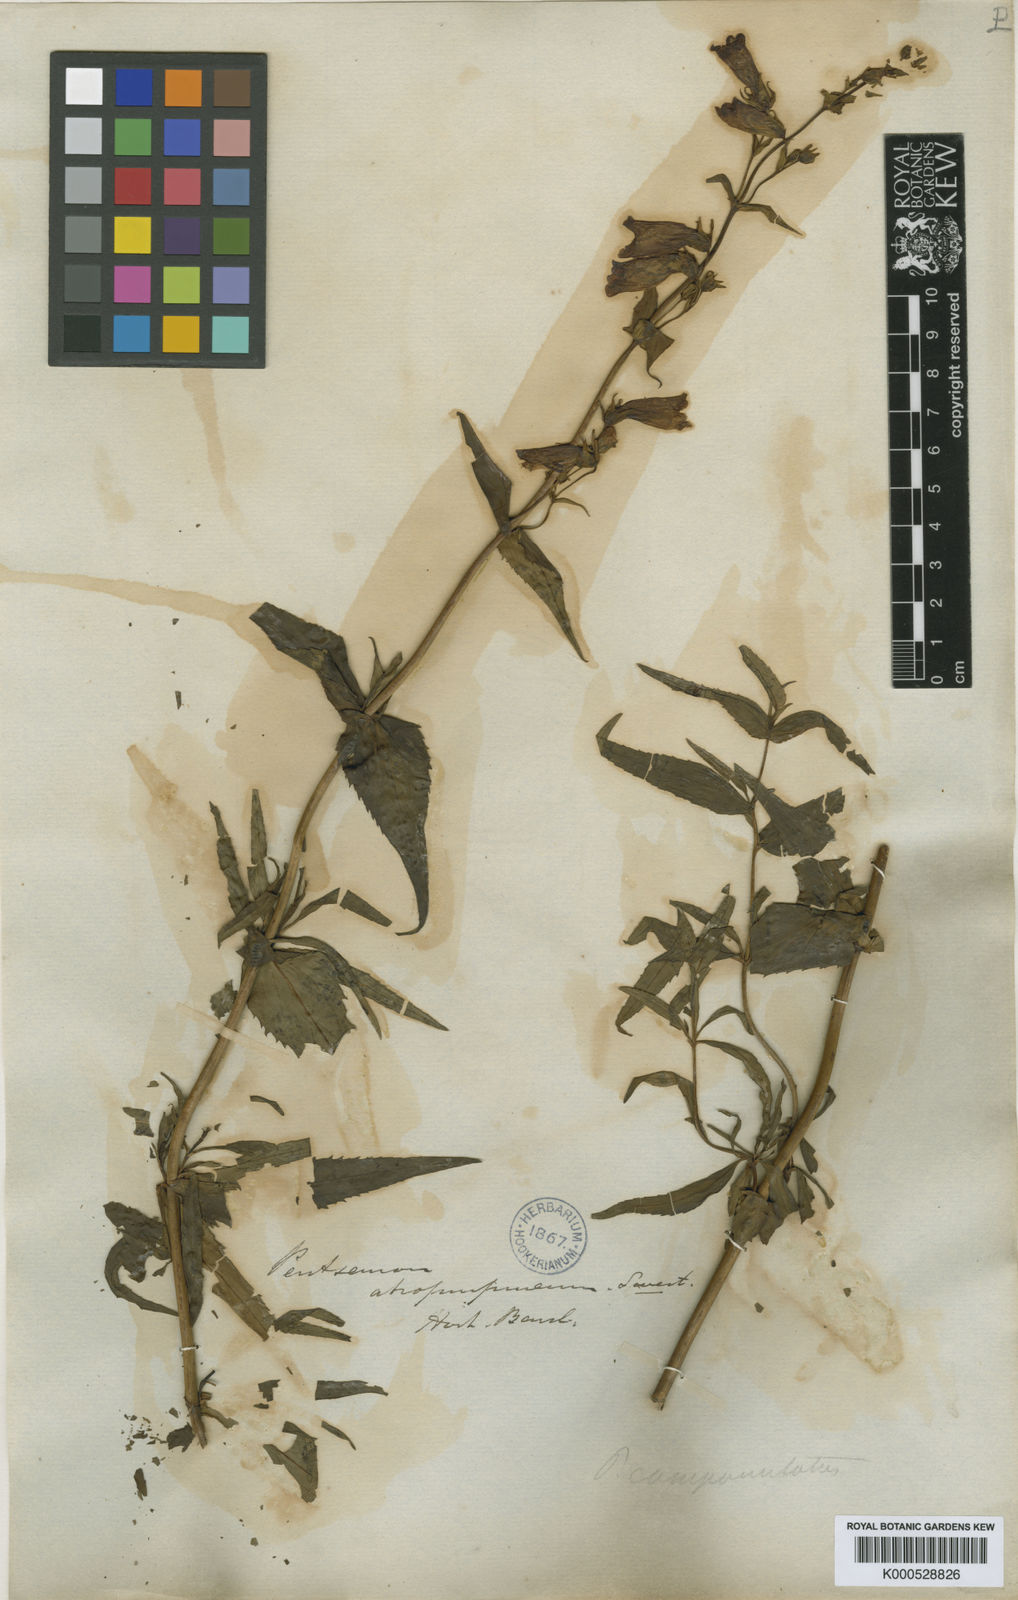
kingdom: Plantae
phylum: Tracheophyta
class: Magnoliopsida
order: Lamiales
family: Plantaginaceae
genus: Penstemon
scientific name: Penstemon atropurpureus
